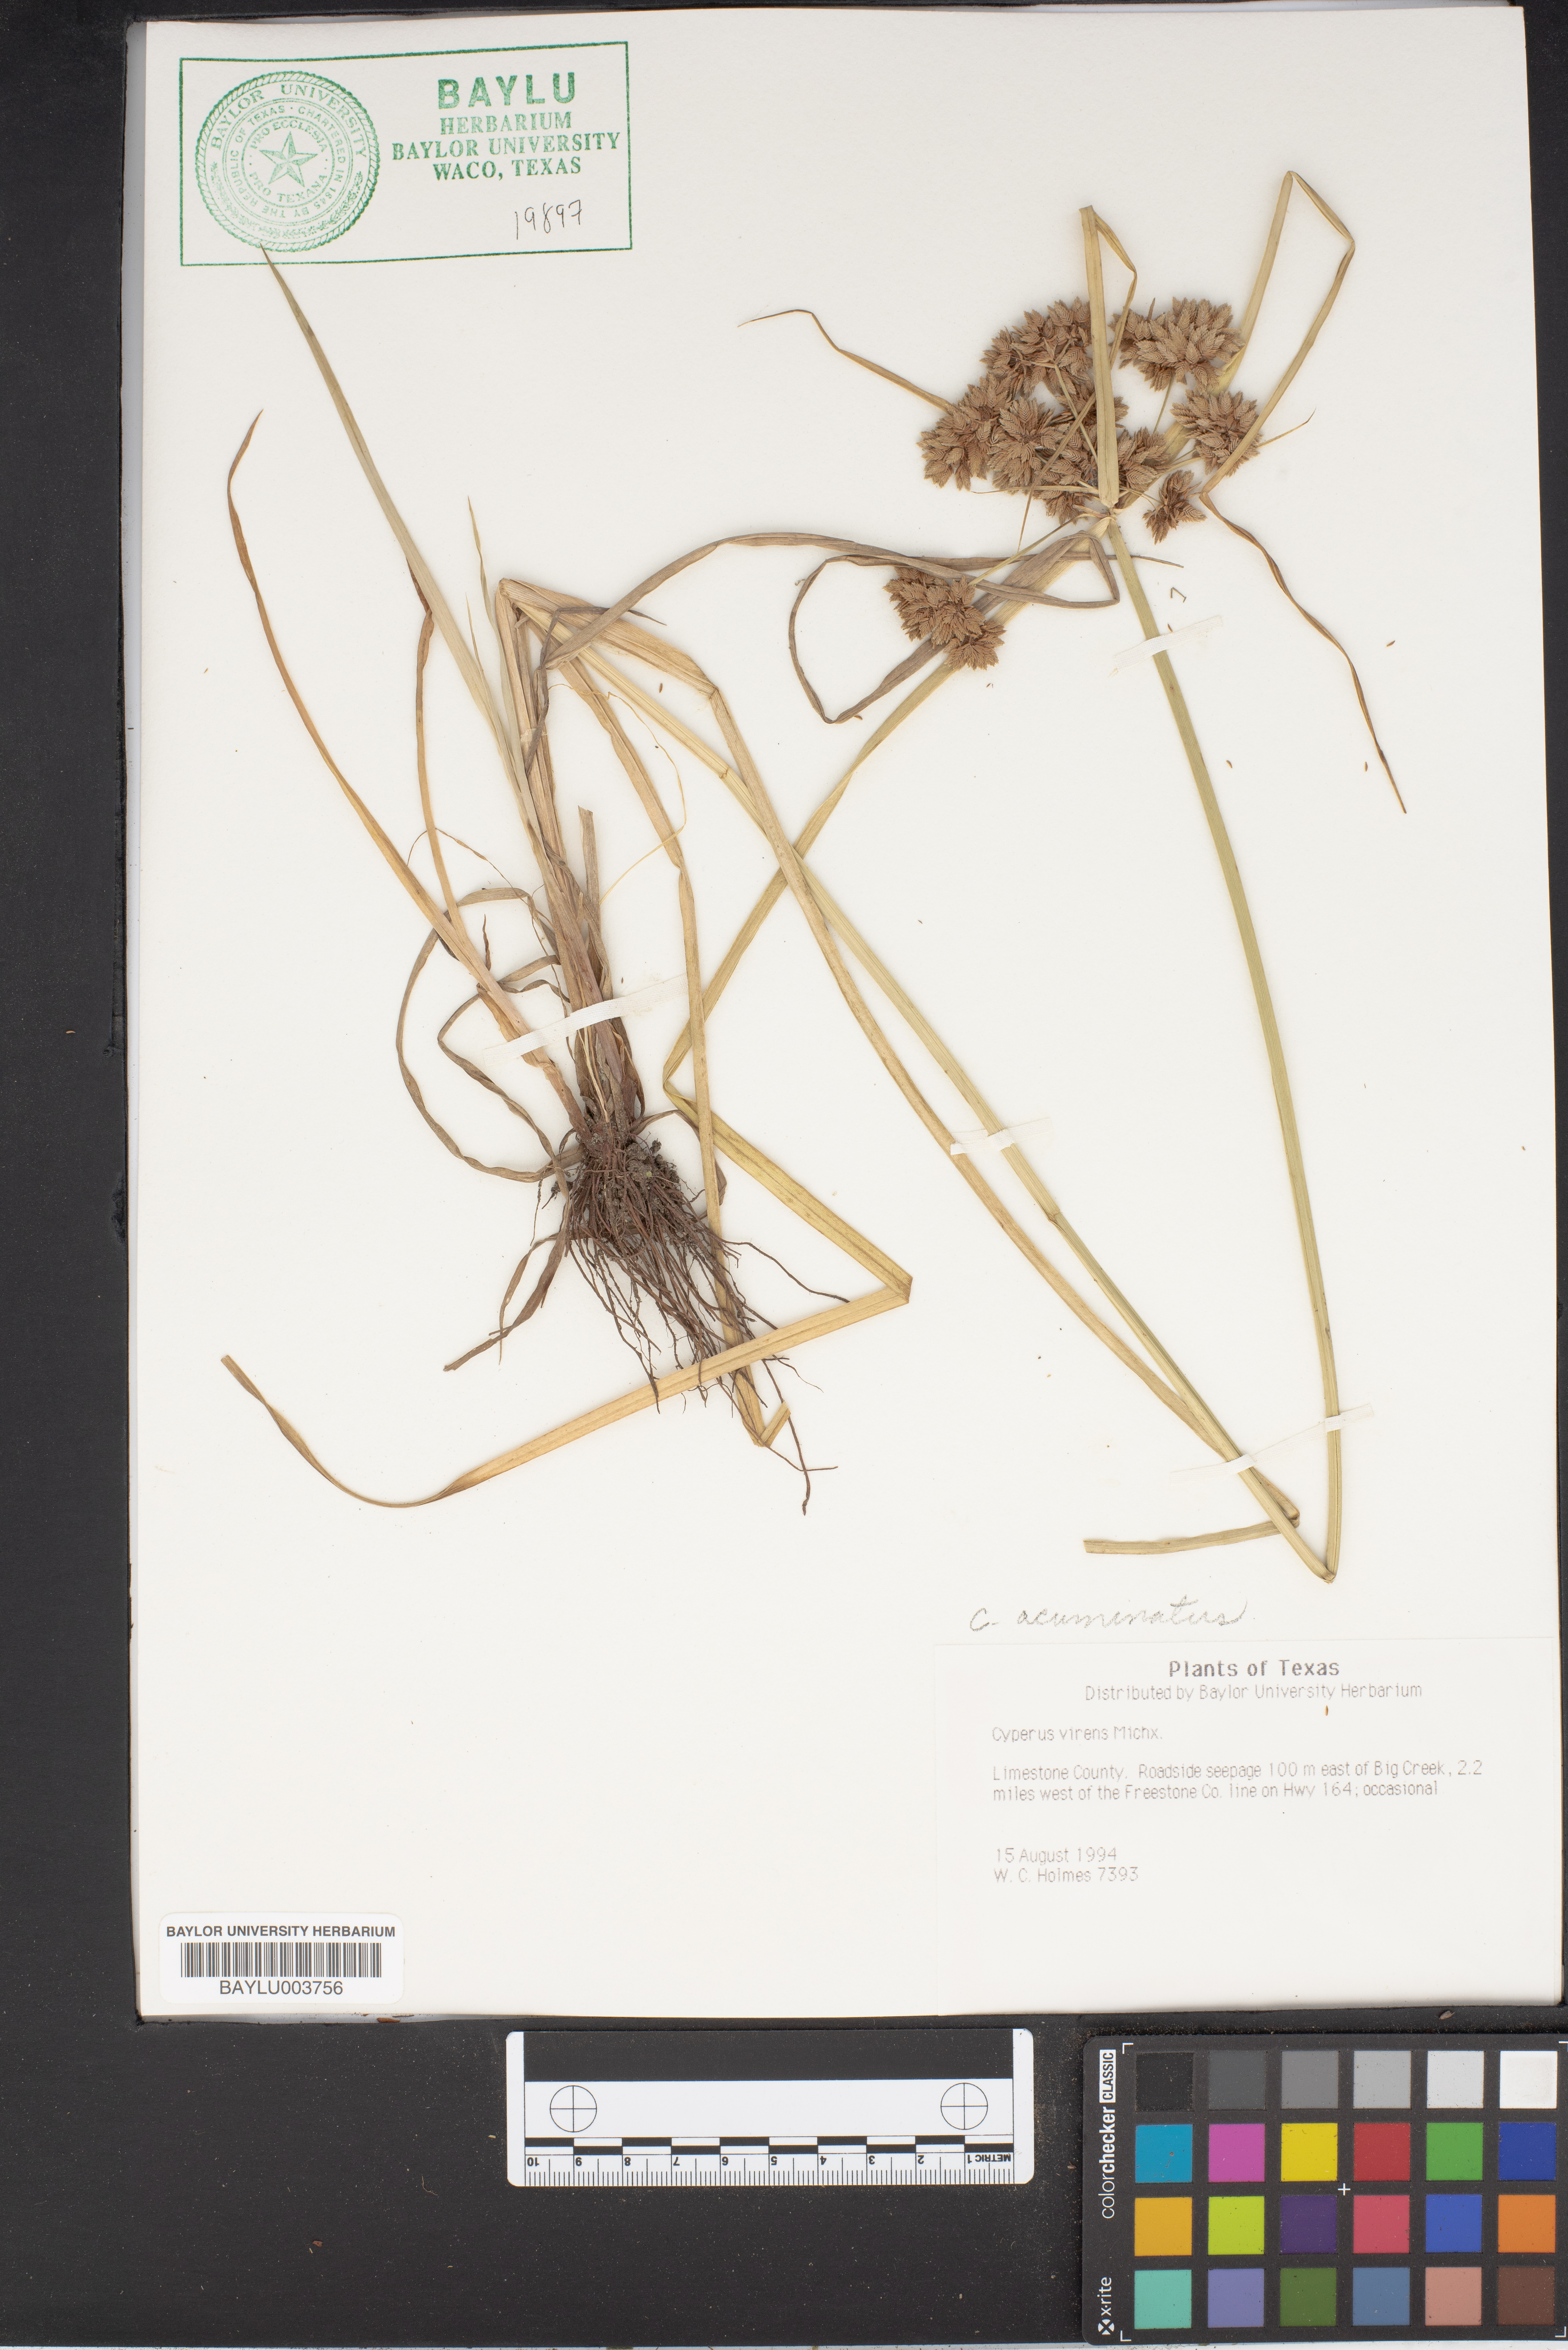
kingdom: Plantae
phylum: Tracheophyta
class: Liliopsida
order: Poales
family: Cyperaceae
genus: Cyperus
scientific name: Cyperus virens
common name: Green flatsedge
